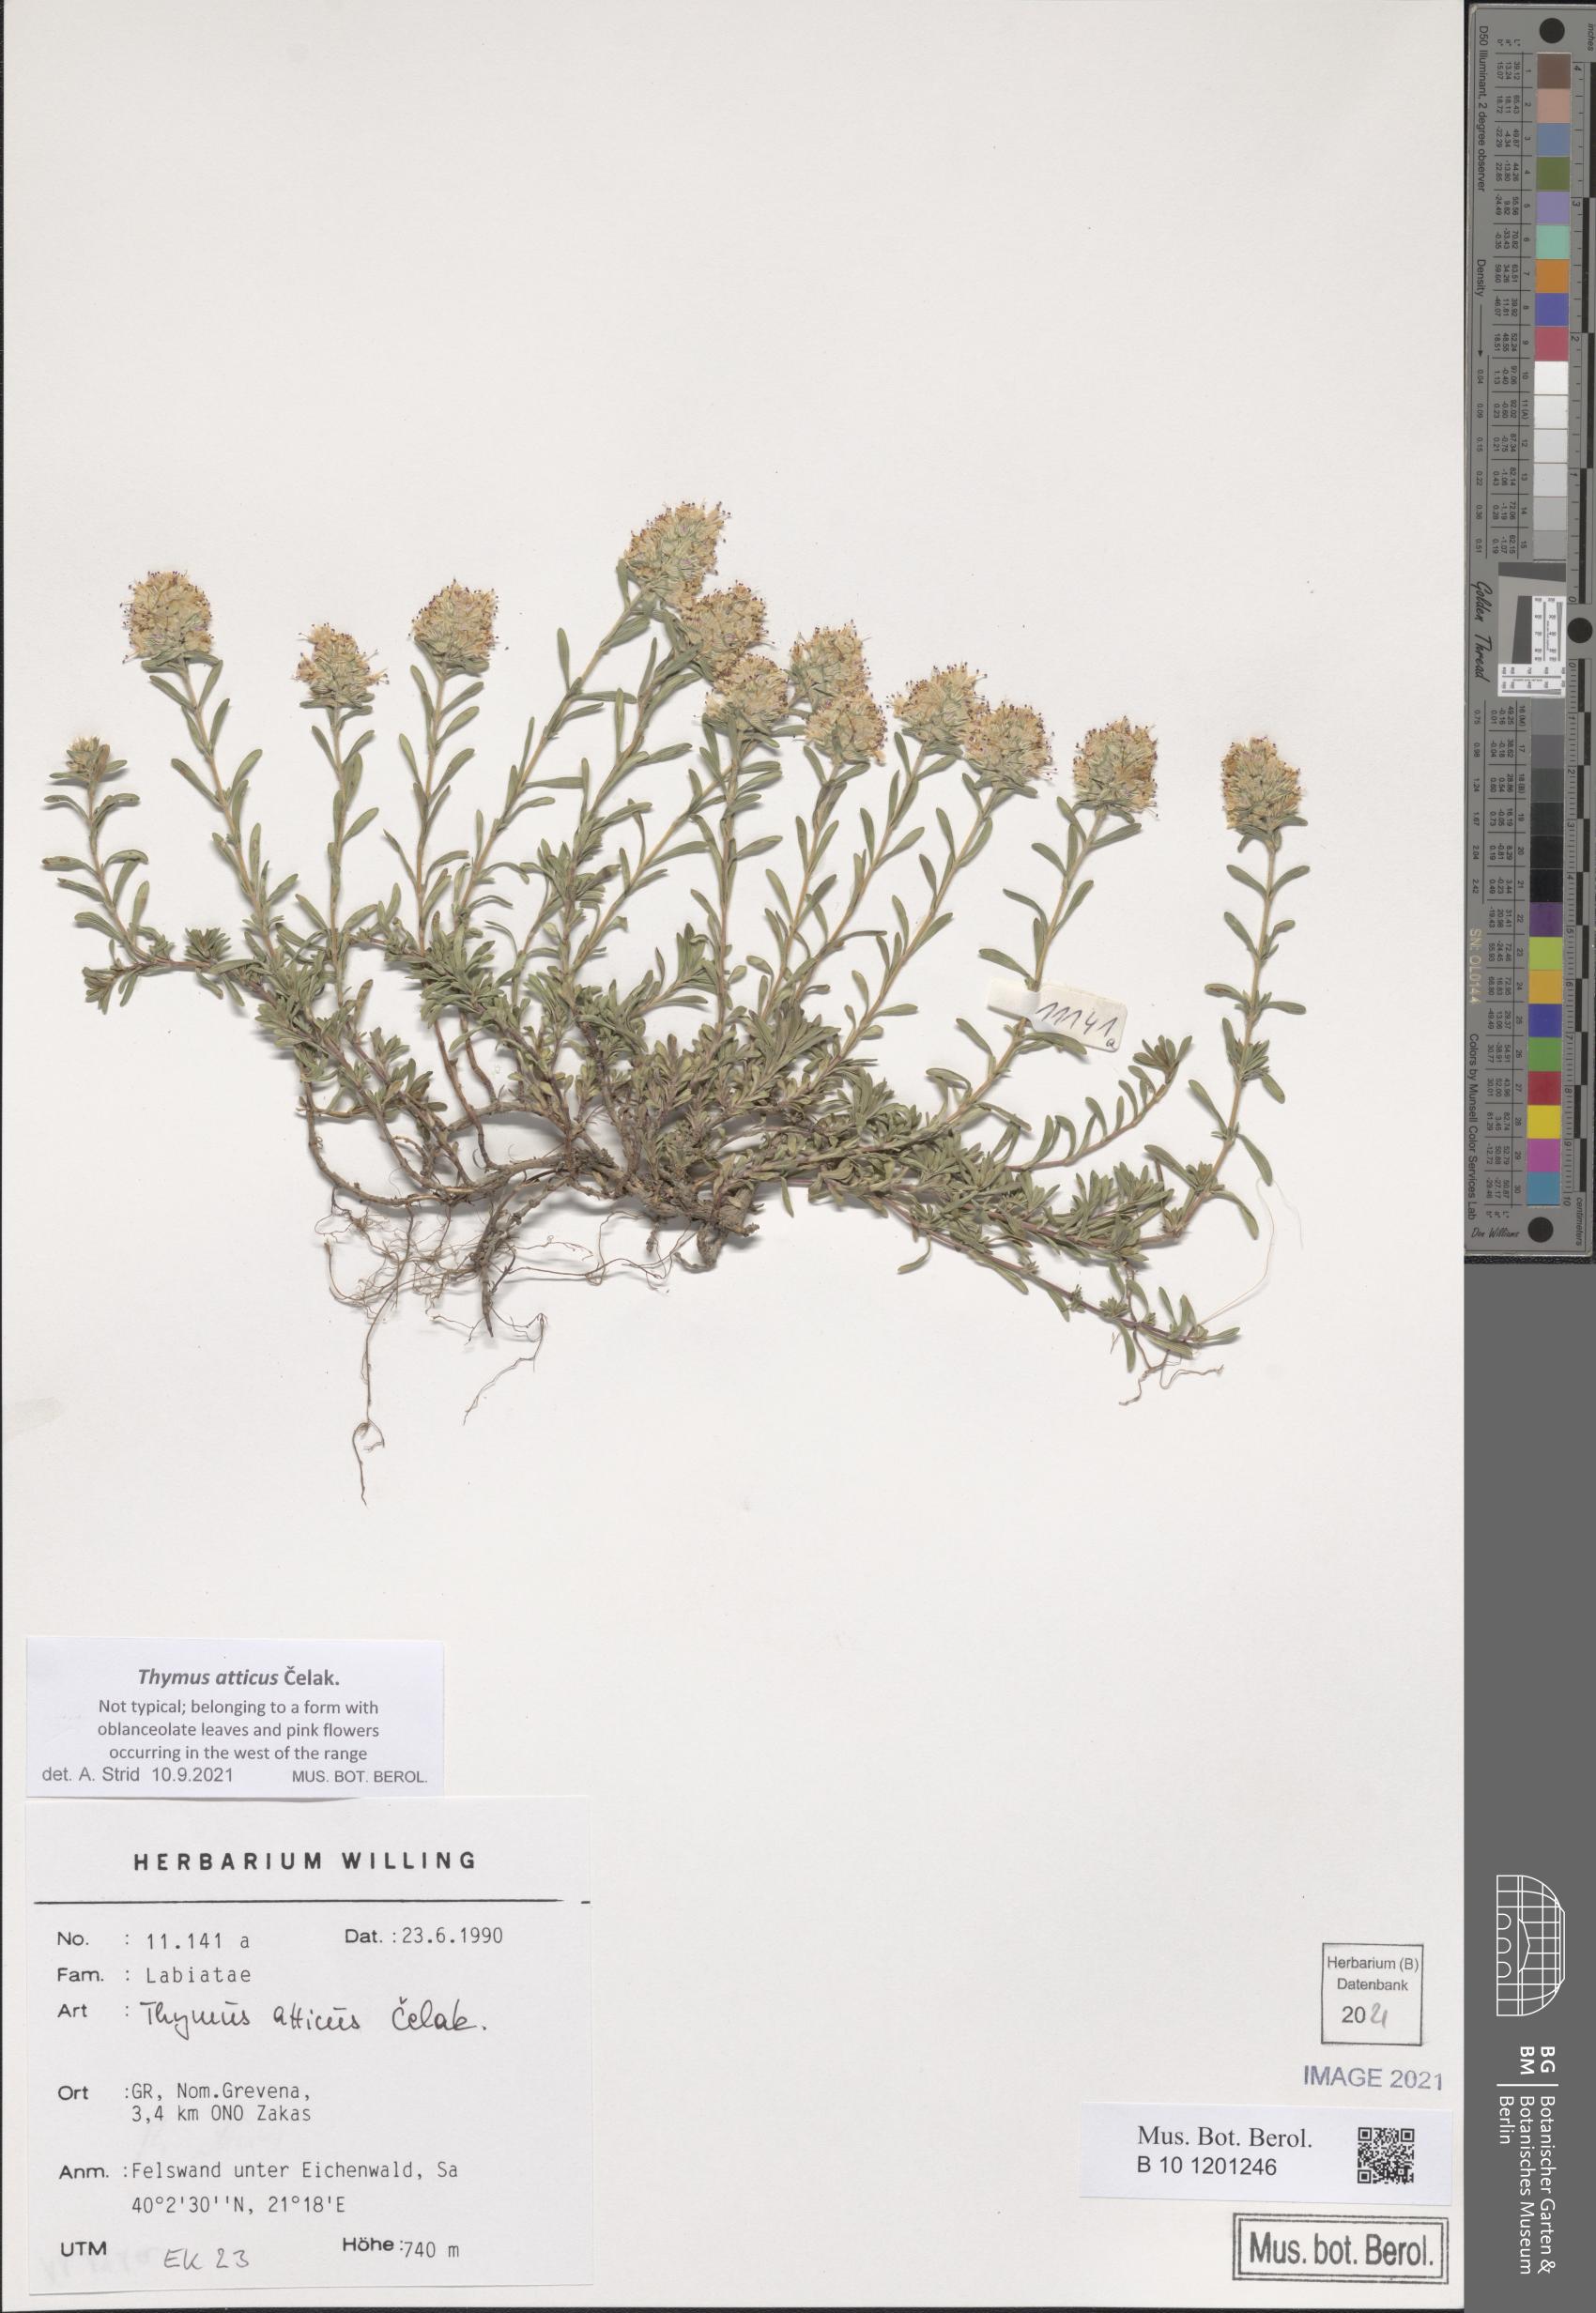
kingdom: Plantae
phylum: Tracheophyta
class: Magnoliopsida
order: Lamiales
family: Lamiaceae
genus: Thymus
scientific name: Thymus atticus
